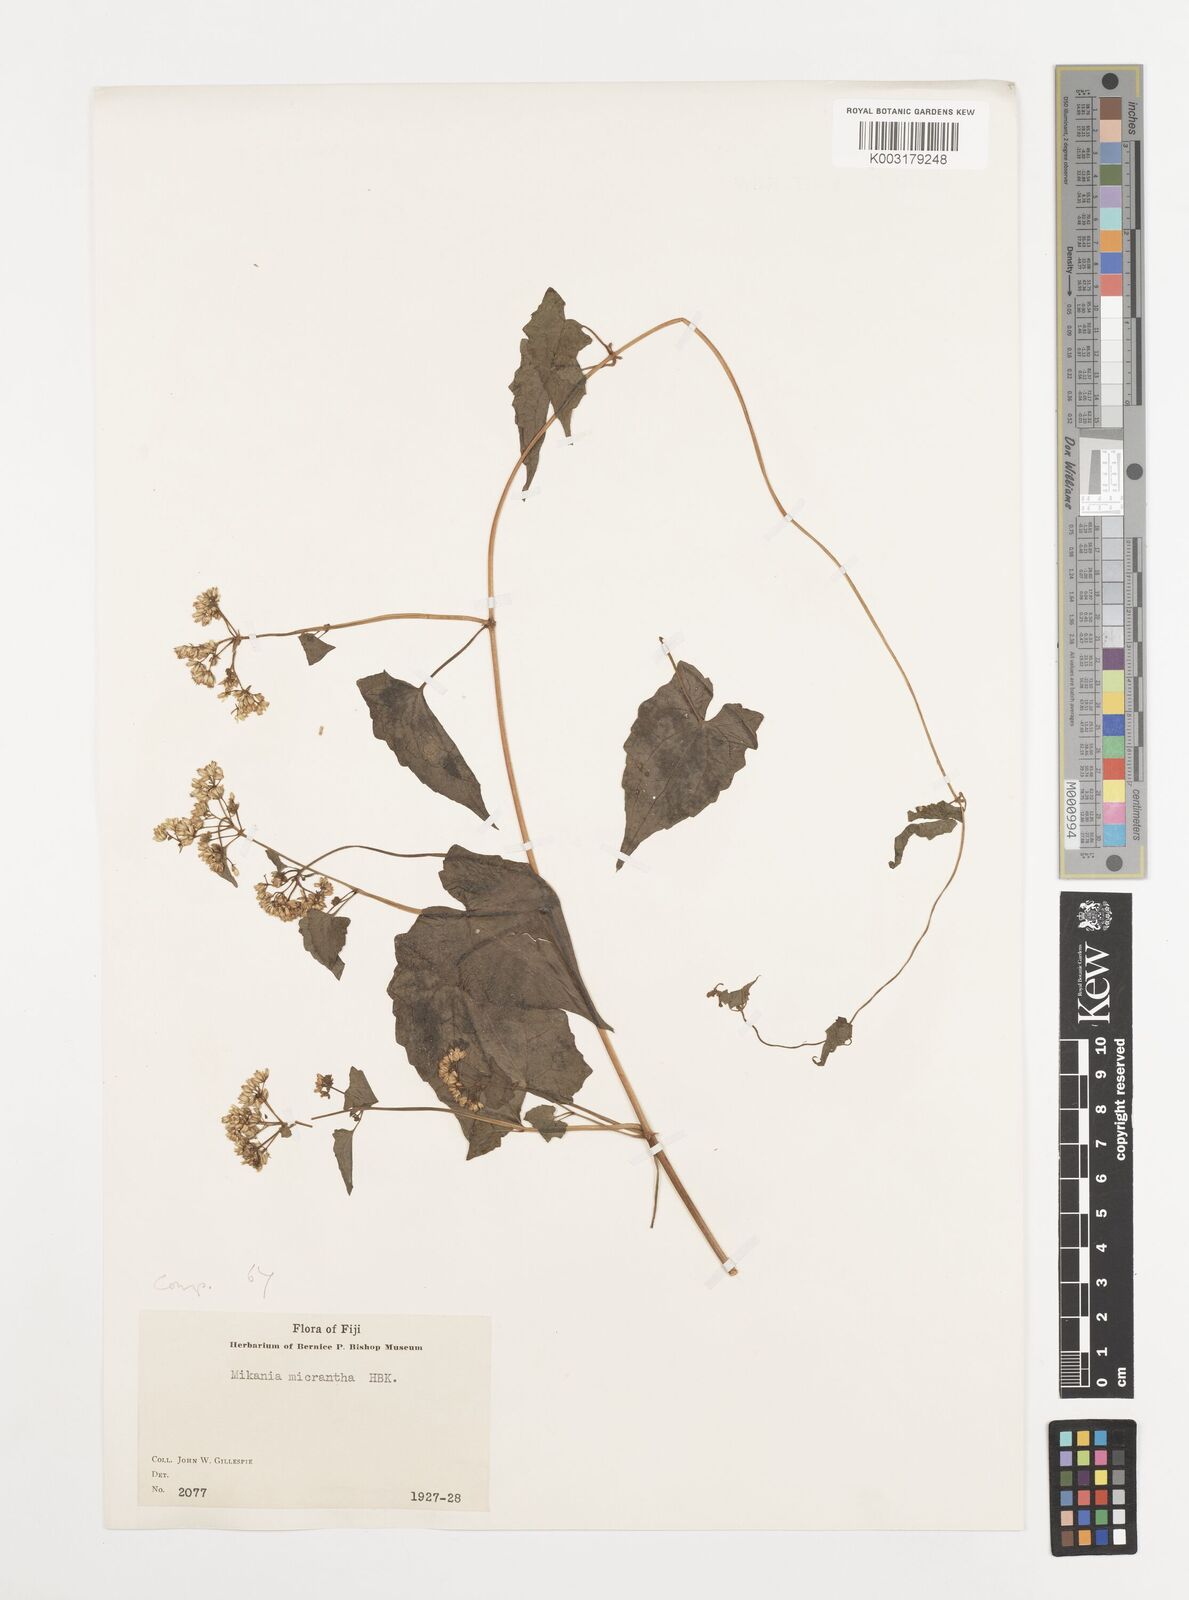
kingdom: Plantae
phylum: Tracheophyta
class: Magnoliopsida
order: Asterales
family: Asteraceae
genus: Mikania
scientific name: Mikania micrantha
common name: Mile-a-minute
